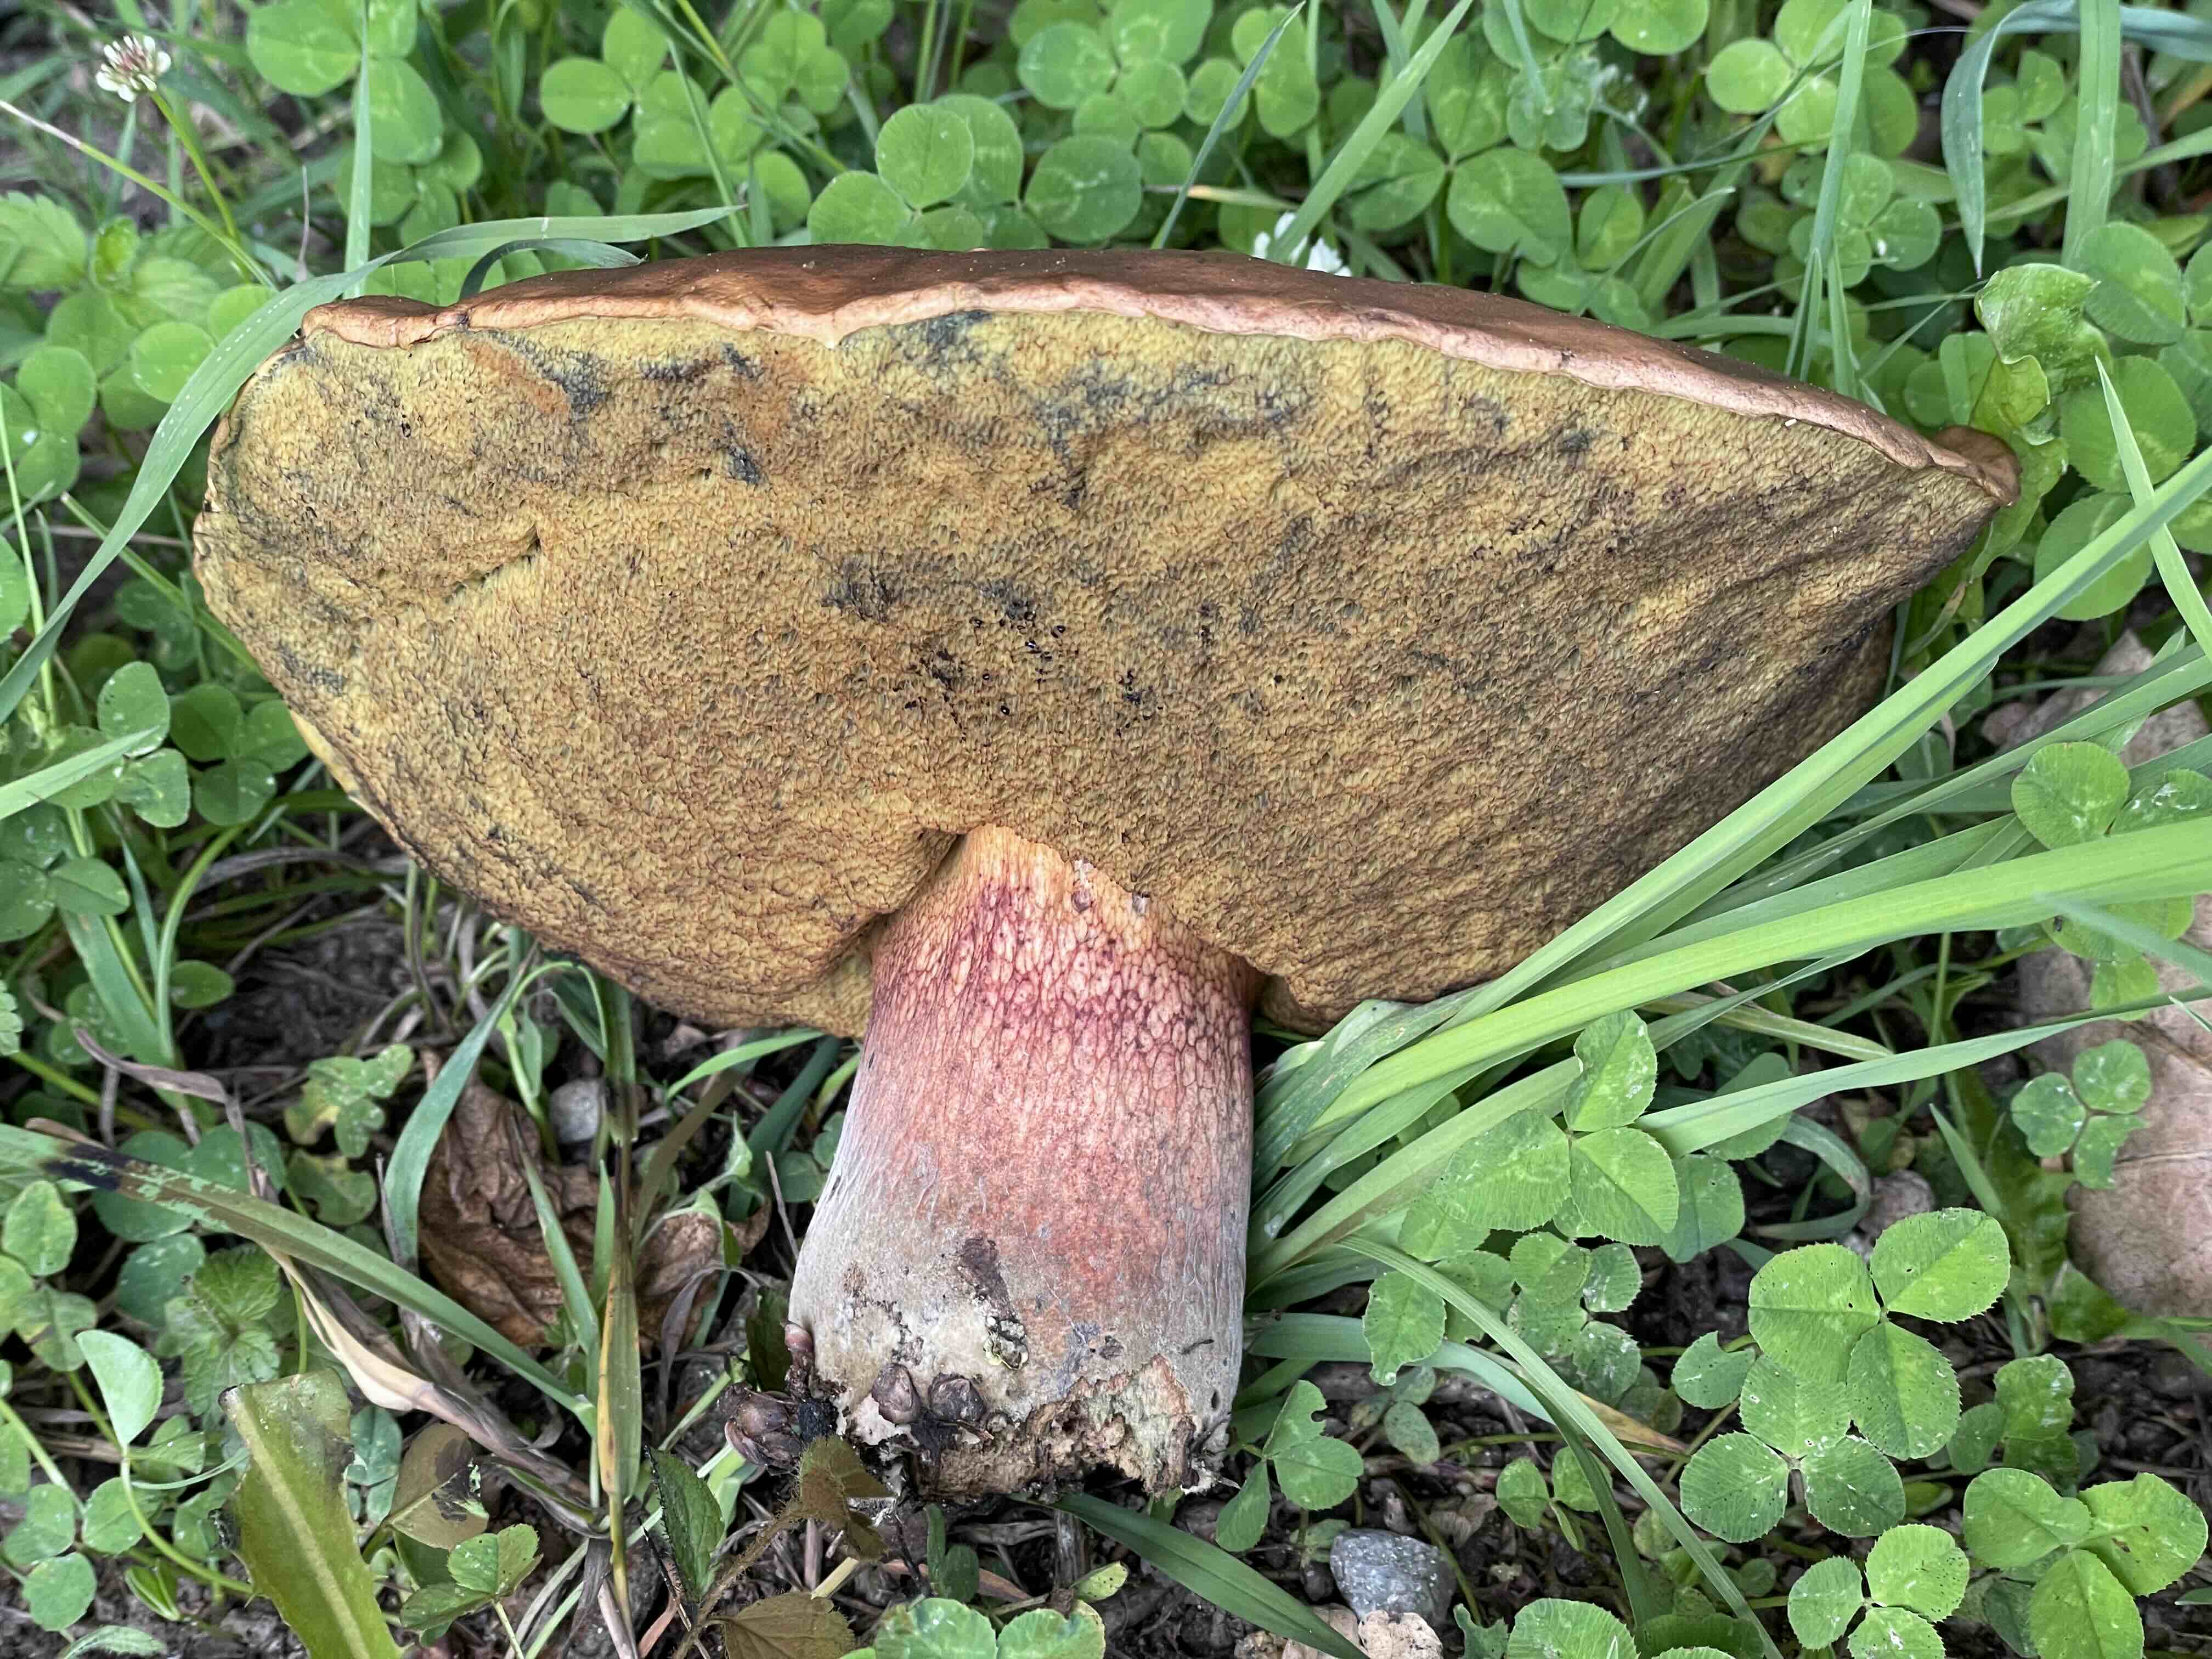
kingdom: Fungi
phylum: Basidiomycota
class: Agaricomycetes
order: Boletales
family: Boletaceae
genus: Suillellus
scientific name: Suillellus luridus
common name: netstokket indigorørhat
